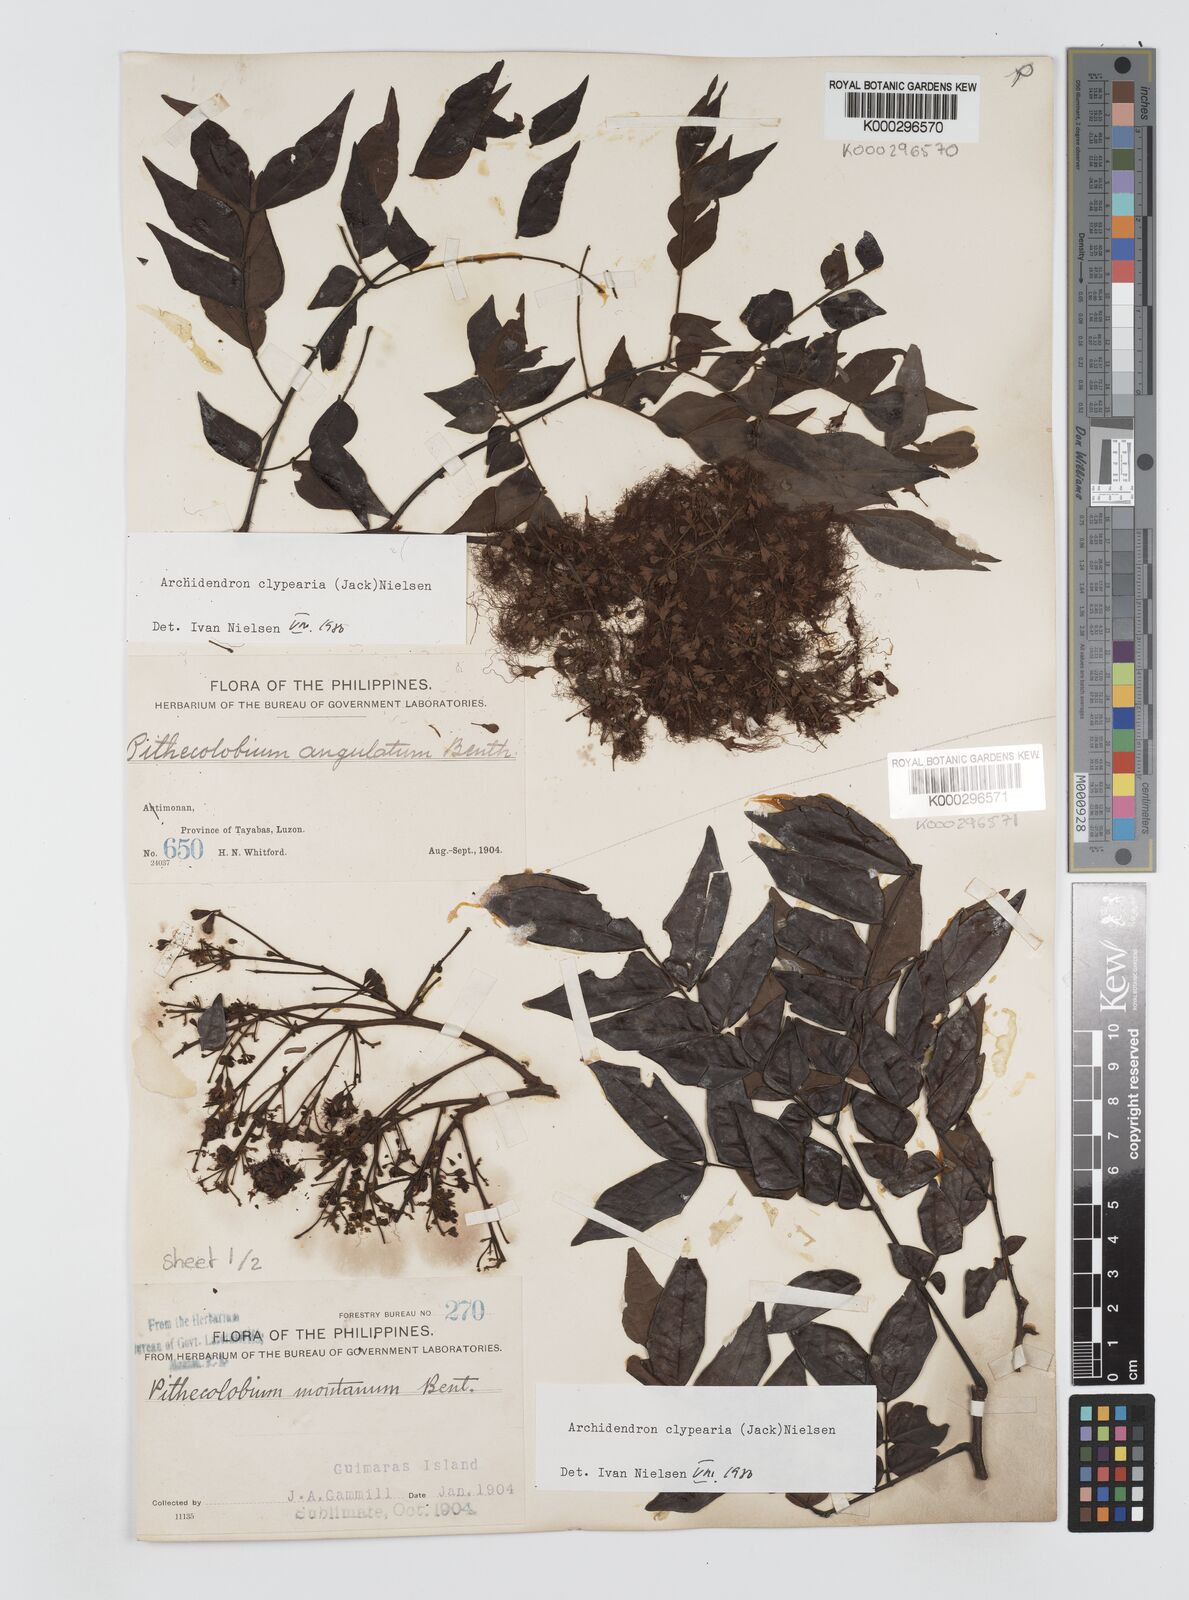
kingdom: Plantae
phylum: Tracheophyta
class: Magnoliopsida
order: Fabales
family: Fabaceae
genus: Archidendron
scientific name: Archidendron clypearia
